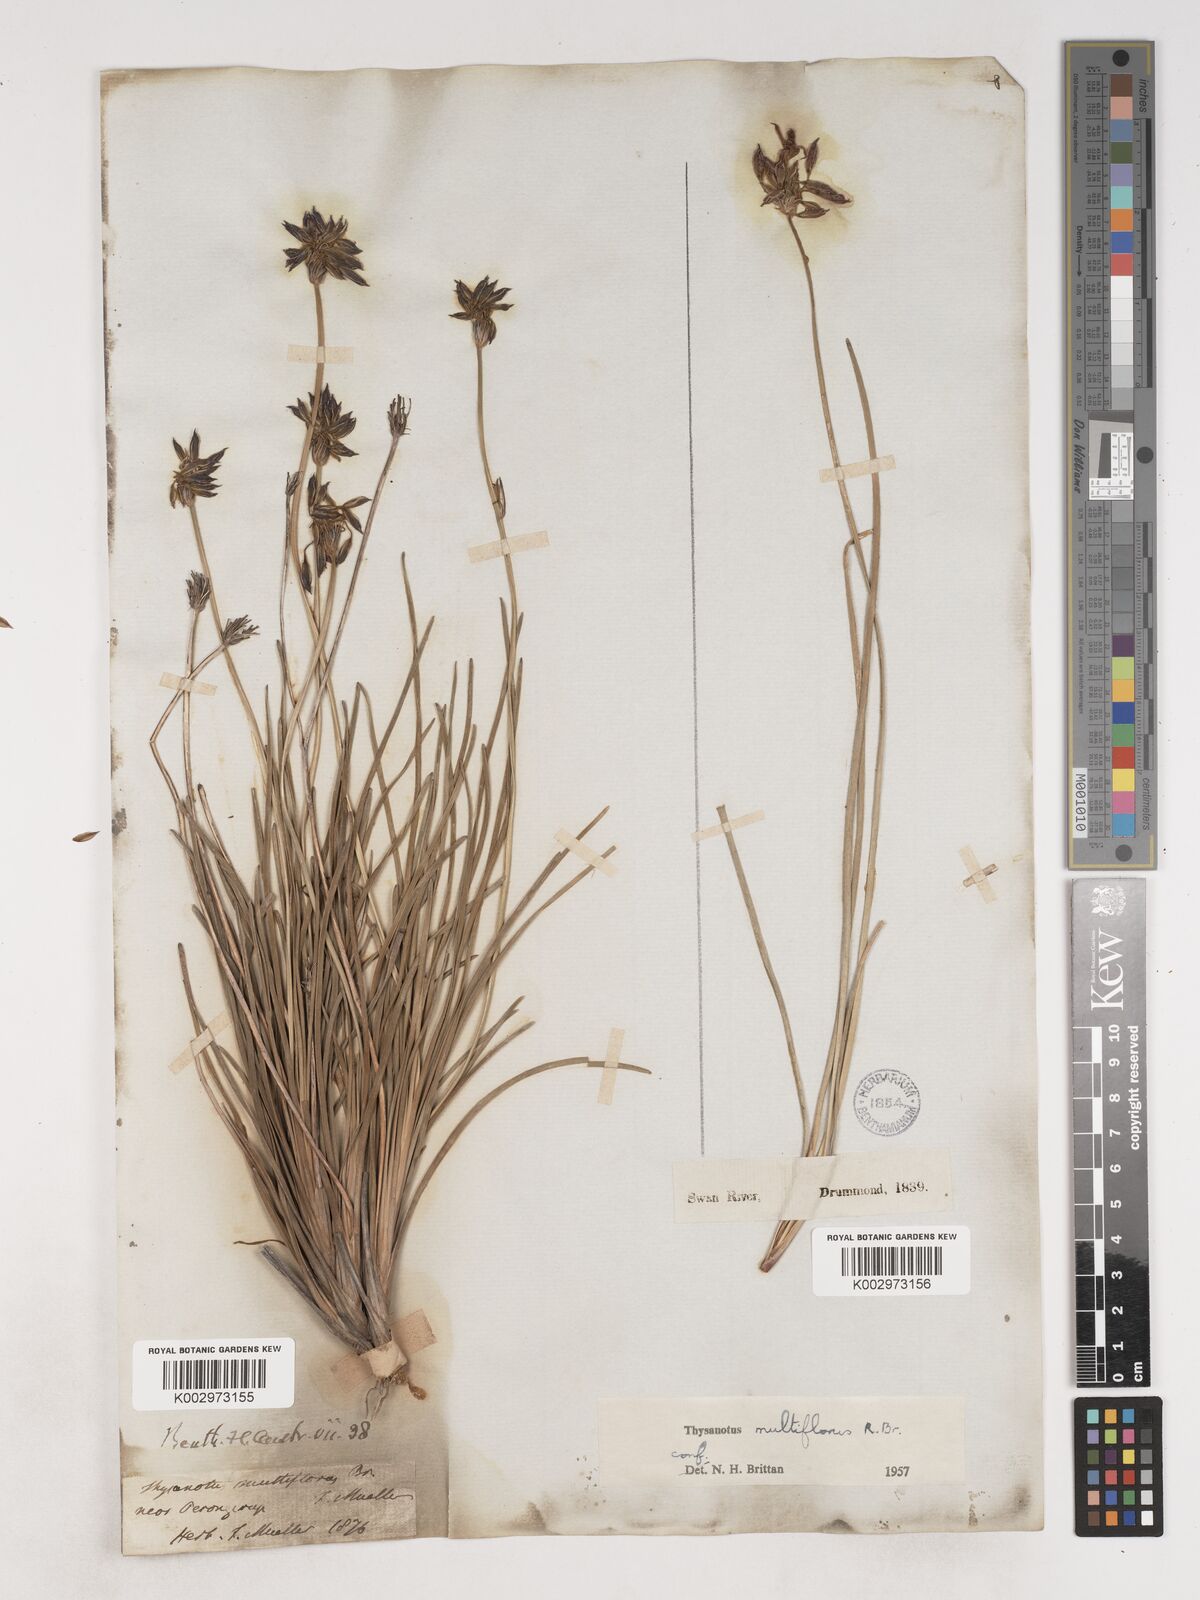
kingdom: Plantae
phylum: Tracheophyta
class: Liliopsida
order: Asparagales
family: Asparagaceae
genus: Thysanotus
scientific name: Thysanotus multiflorus
